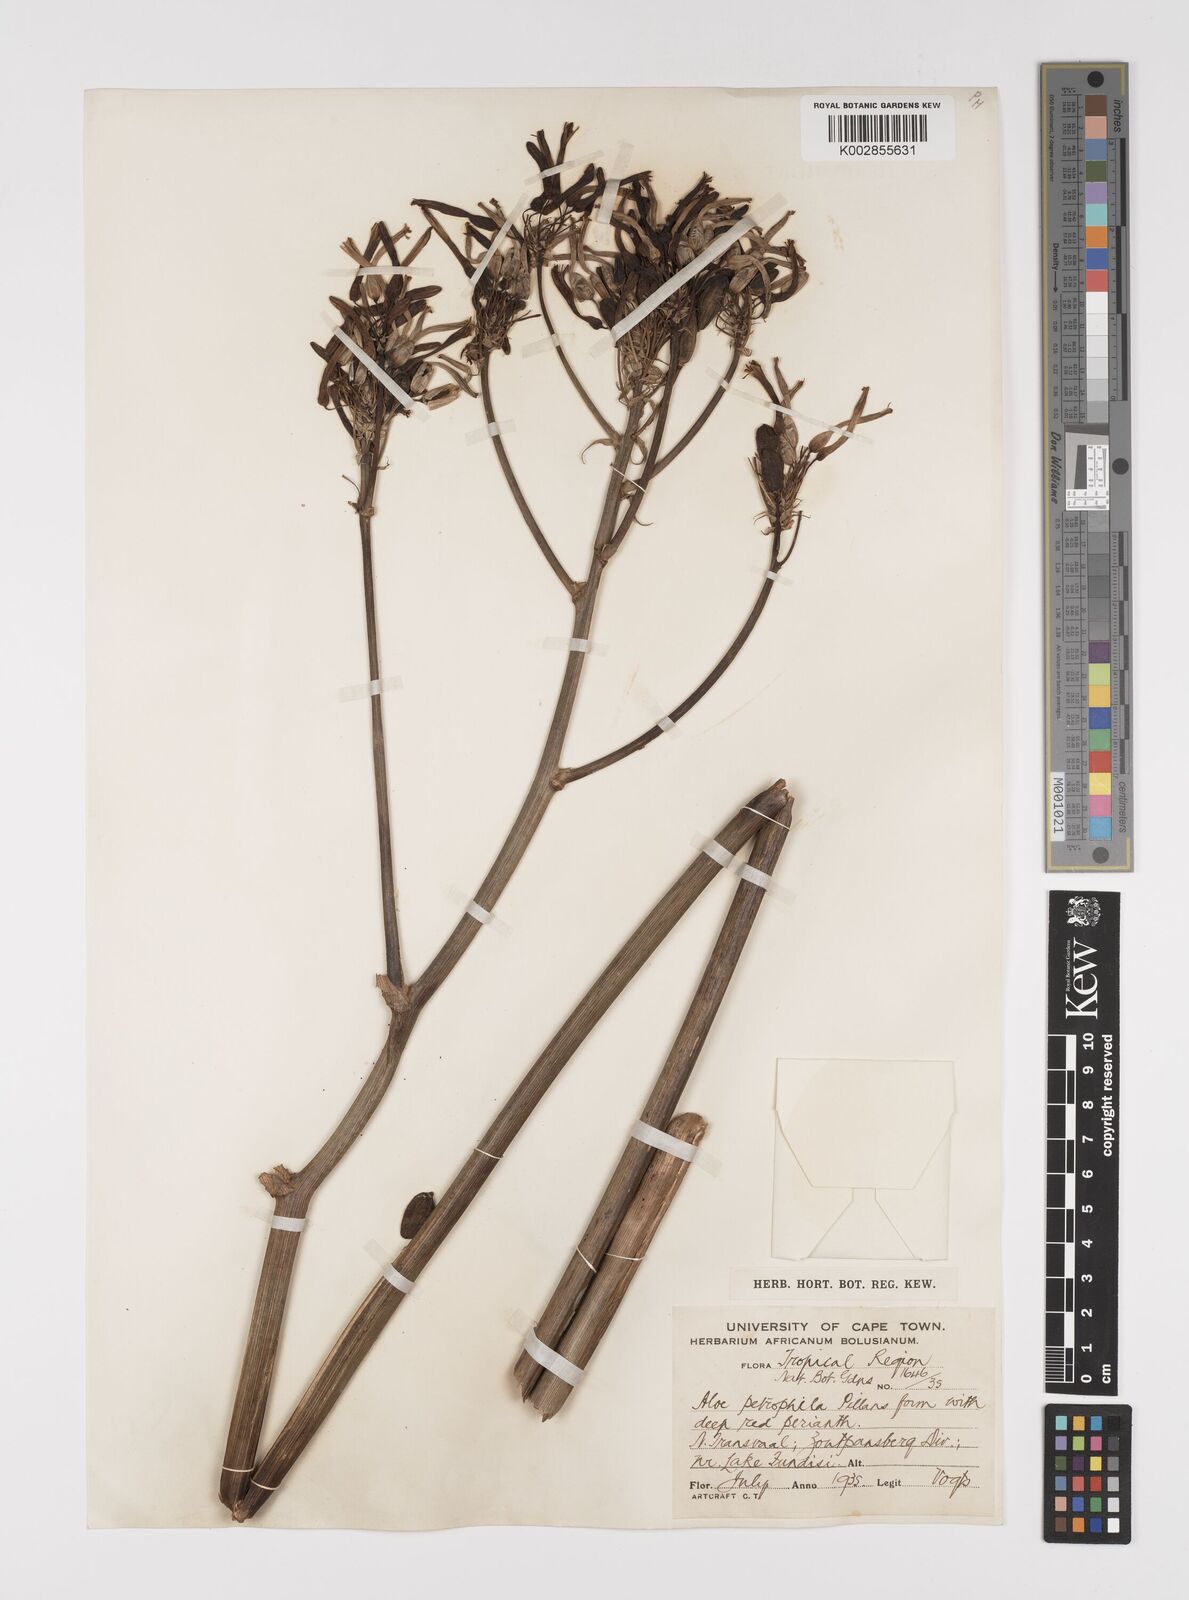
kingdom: Plantae
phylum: Tracheophyta
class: Liliopsida
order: Asparagales
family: Asphodelaceae
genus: Aloe
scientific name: Aloe petrophila
